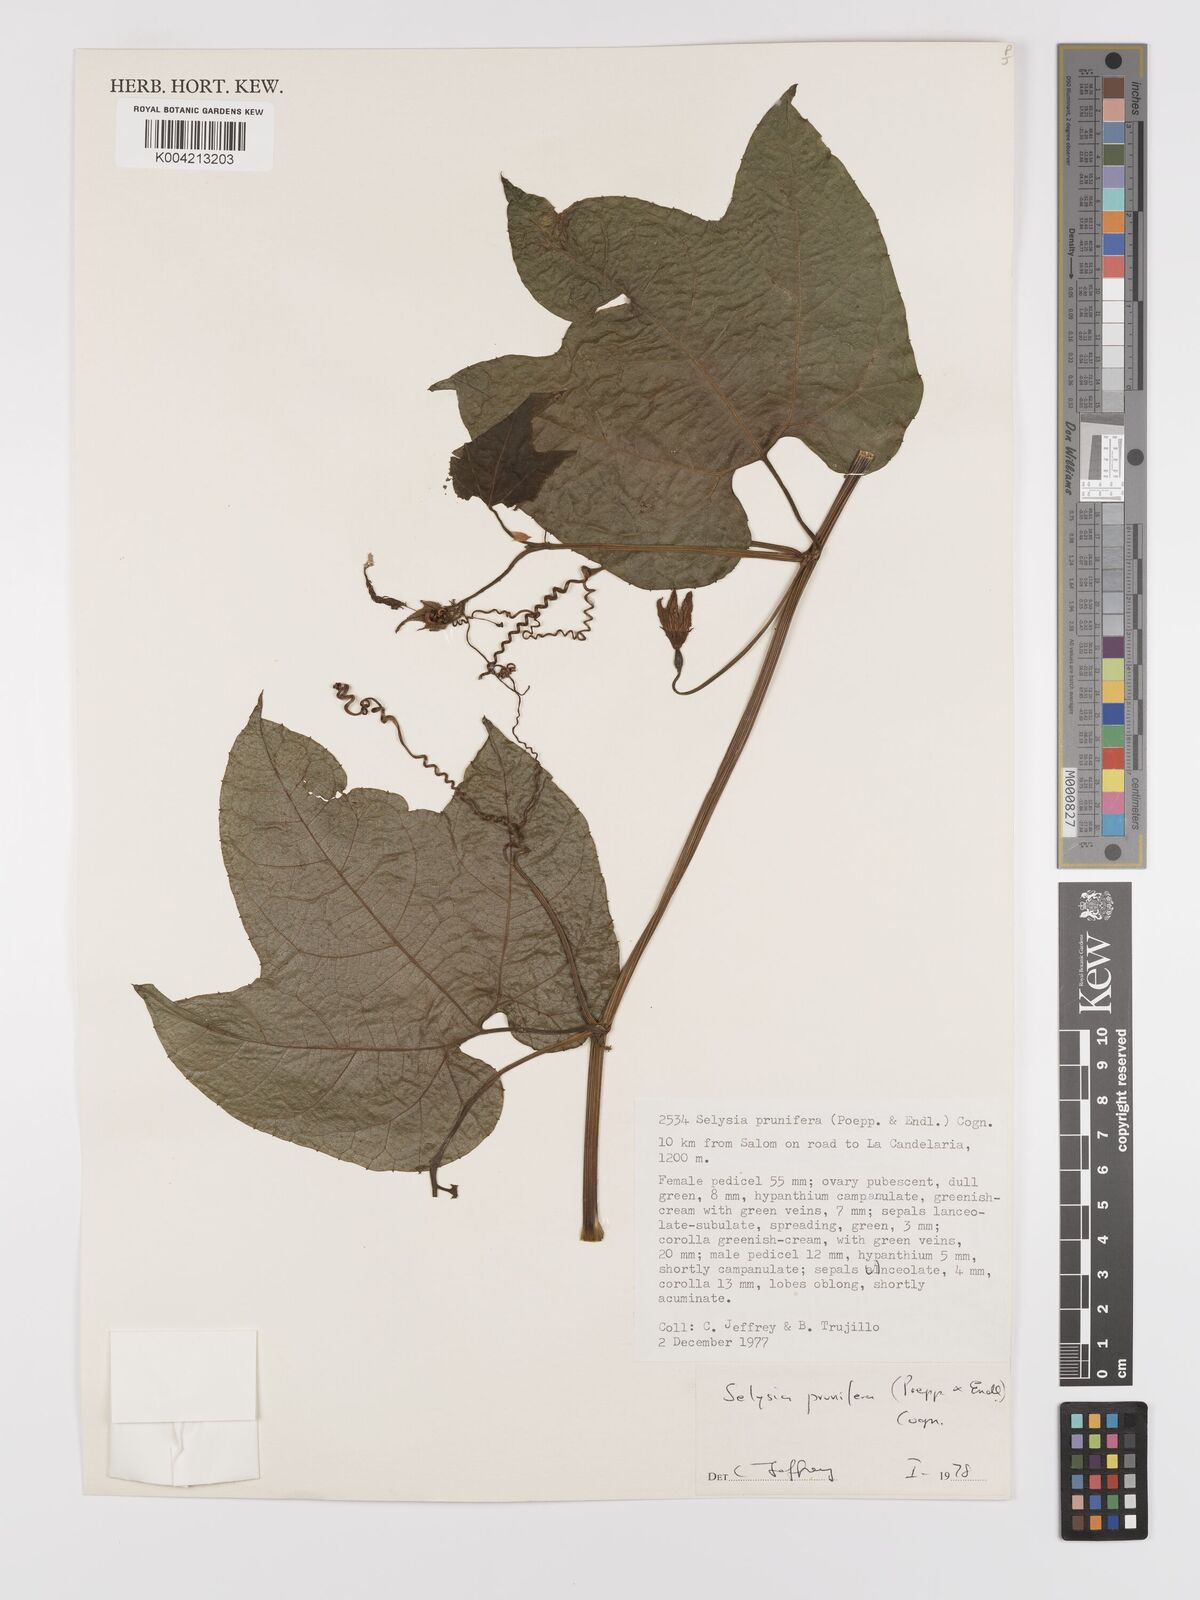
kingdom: Plantae
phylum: Tracheophyta
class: Magnoliopsida
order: Cucurbitales
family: Cucurbitaceae
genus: Cayaponia
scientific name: Cayaponia prunifera
